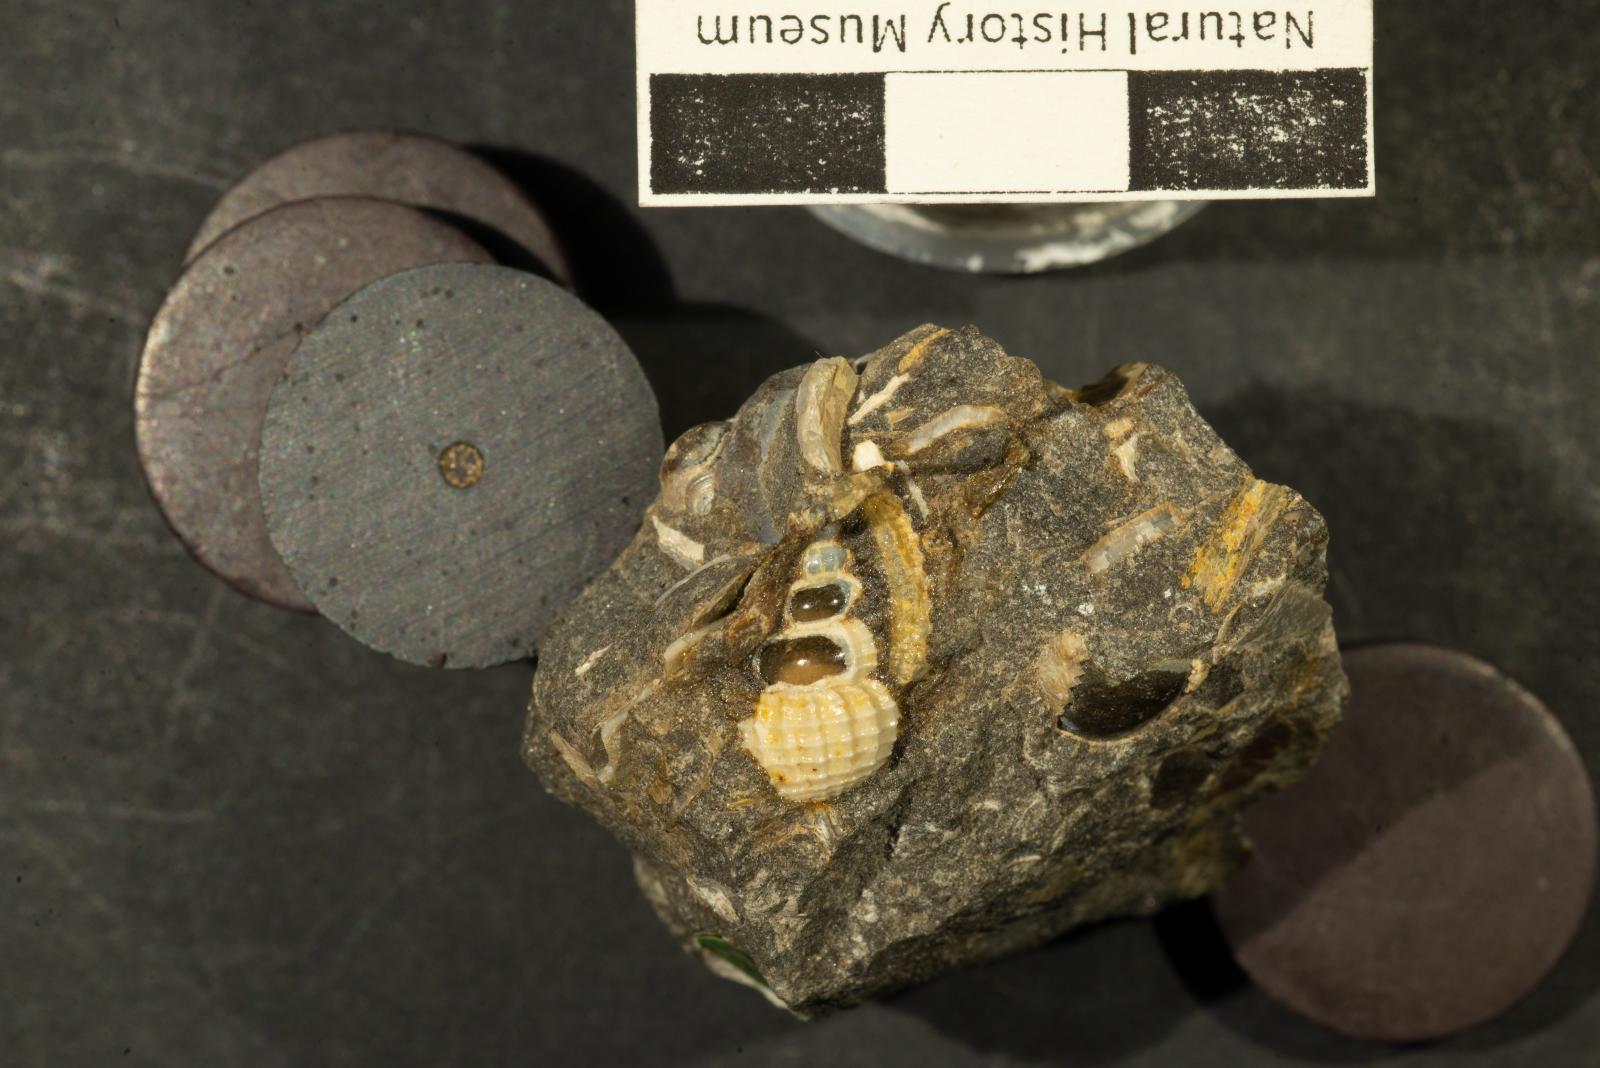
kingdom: Animalia
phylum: Mollusca
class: Gastropoda
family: Cerithiidae
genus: Cerithium
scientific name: Cerithium lallierianum
